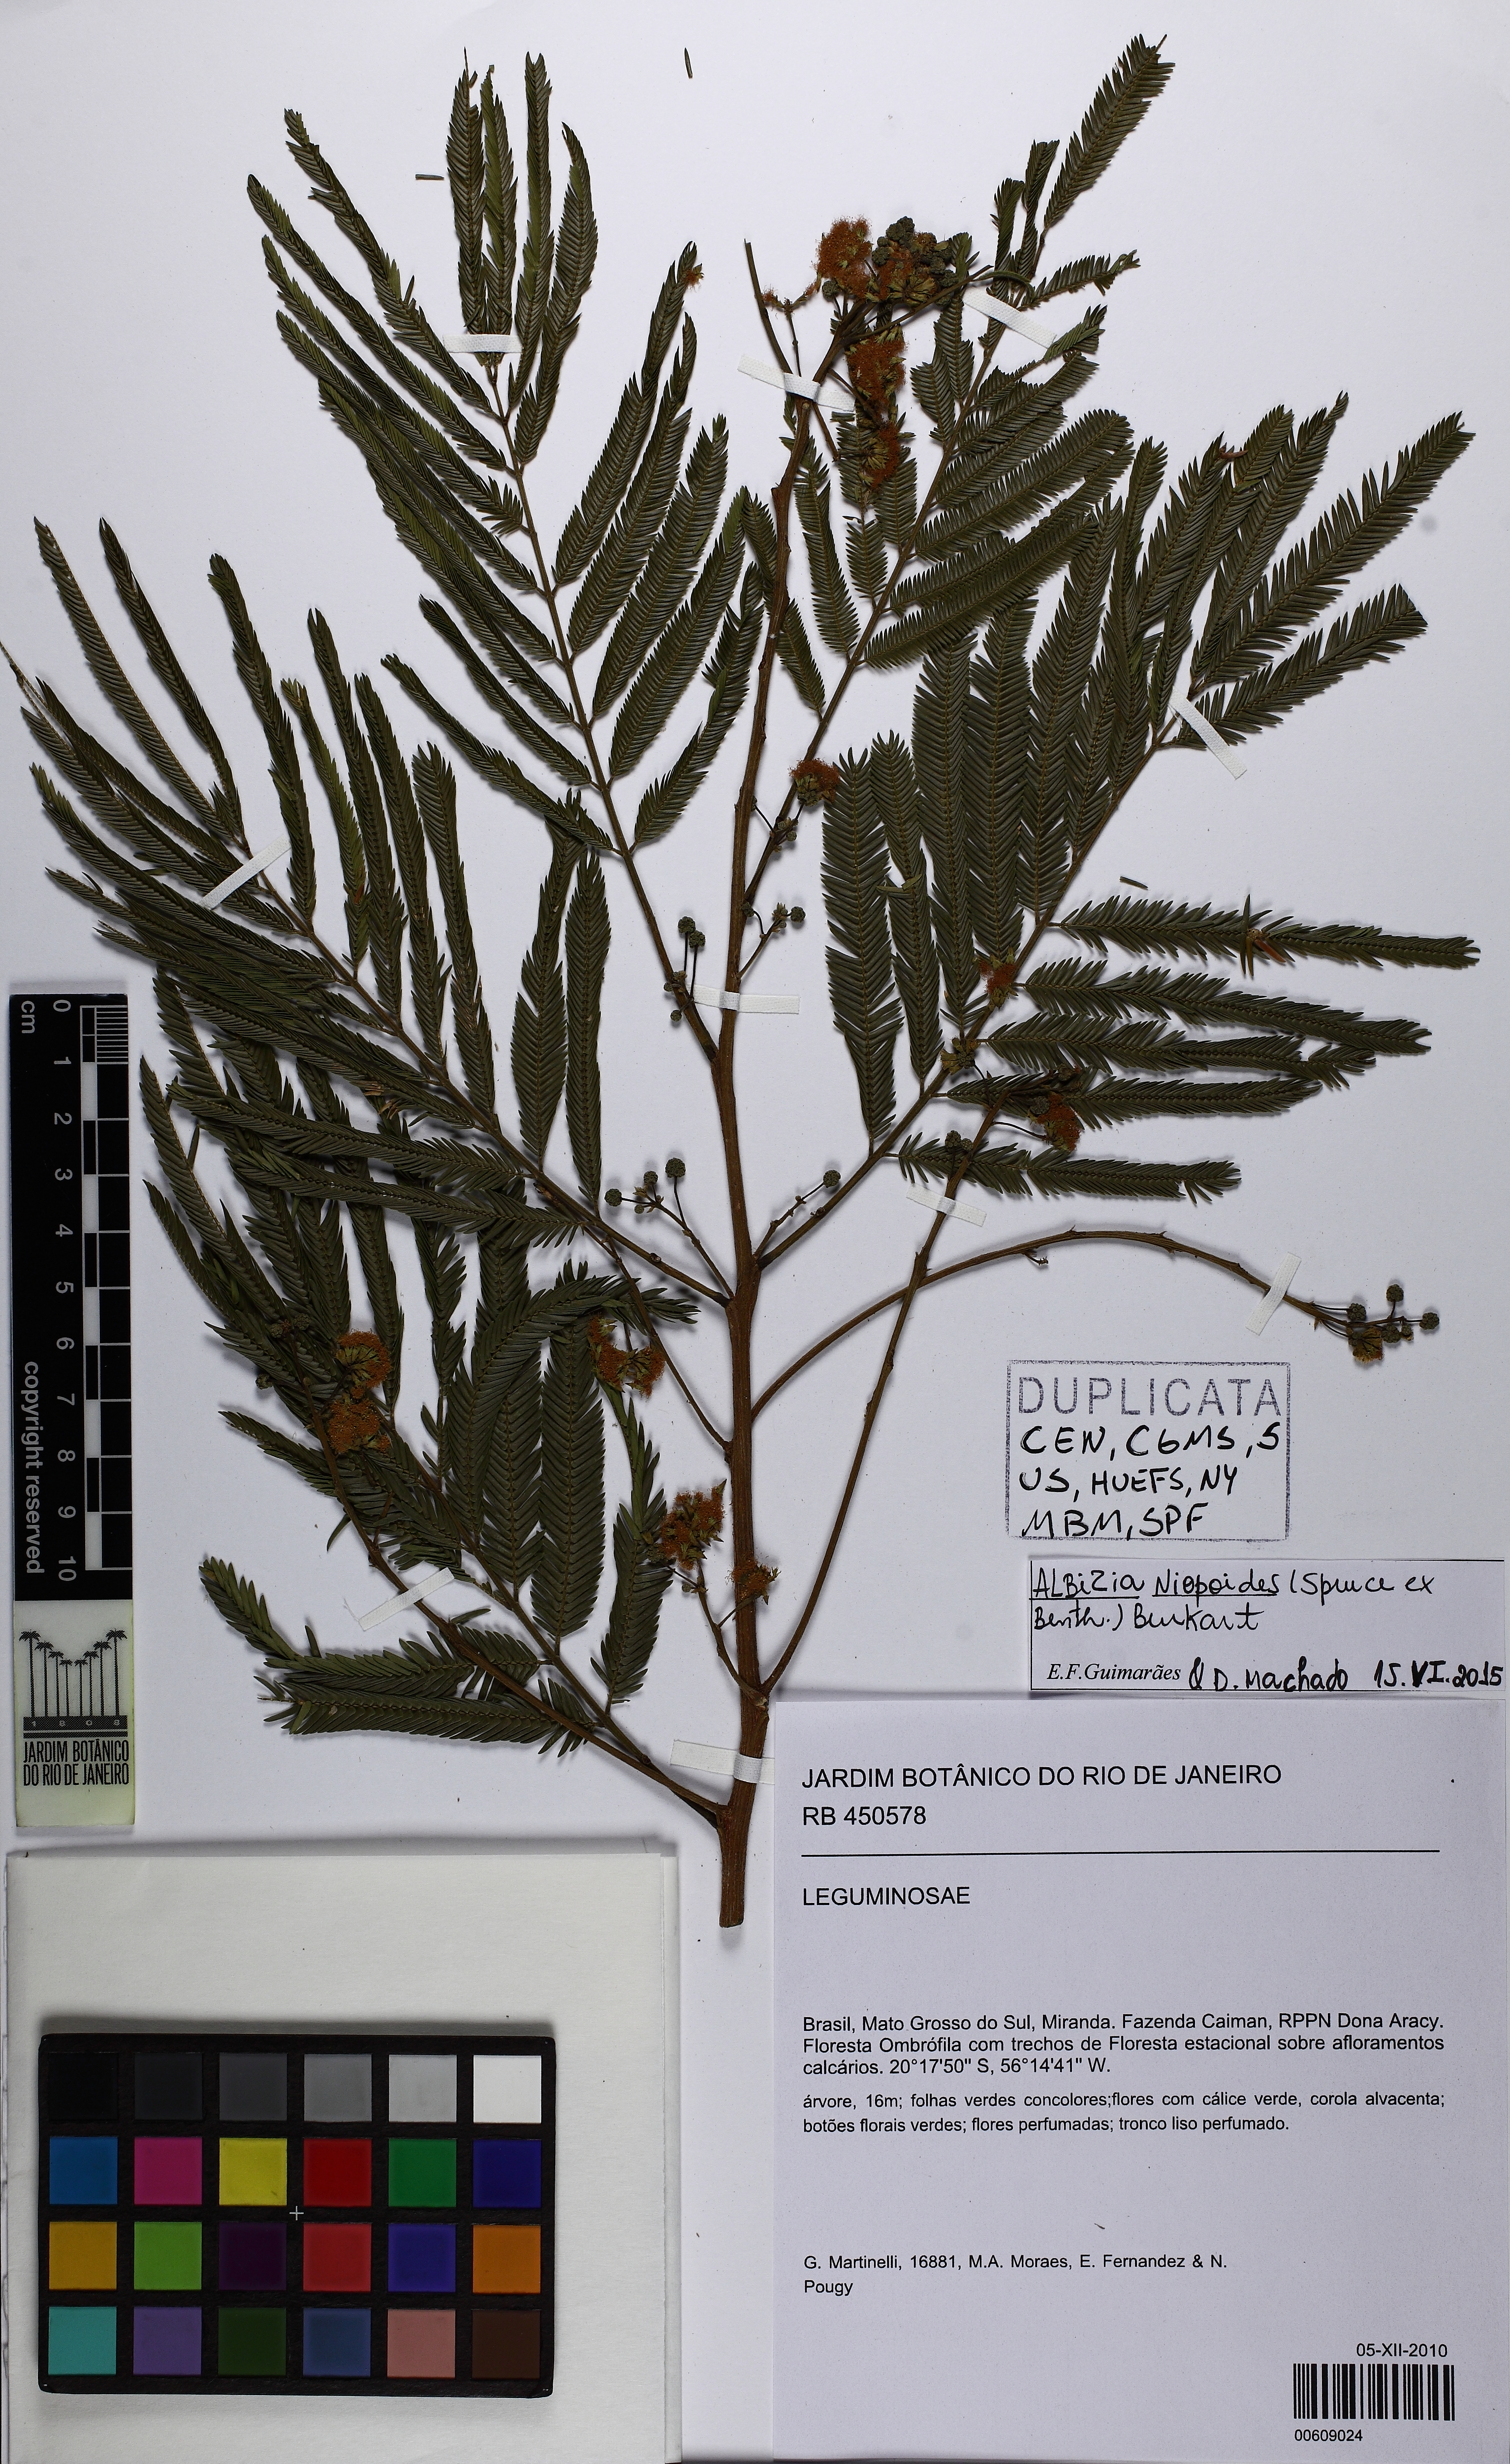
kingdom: Plantae
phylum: Tracheophyta
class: Magnoliopsida
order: Fabales
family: Fabaceae
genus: Albizia
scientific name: Albizia niopoides
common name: Silk tree
